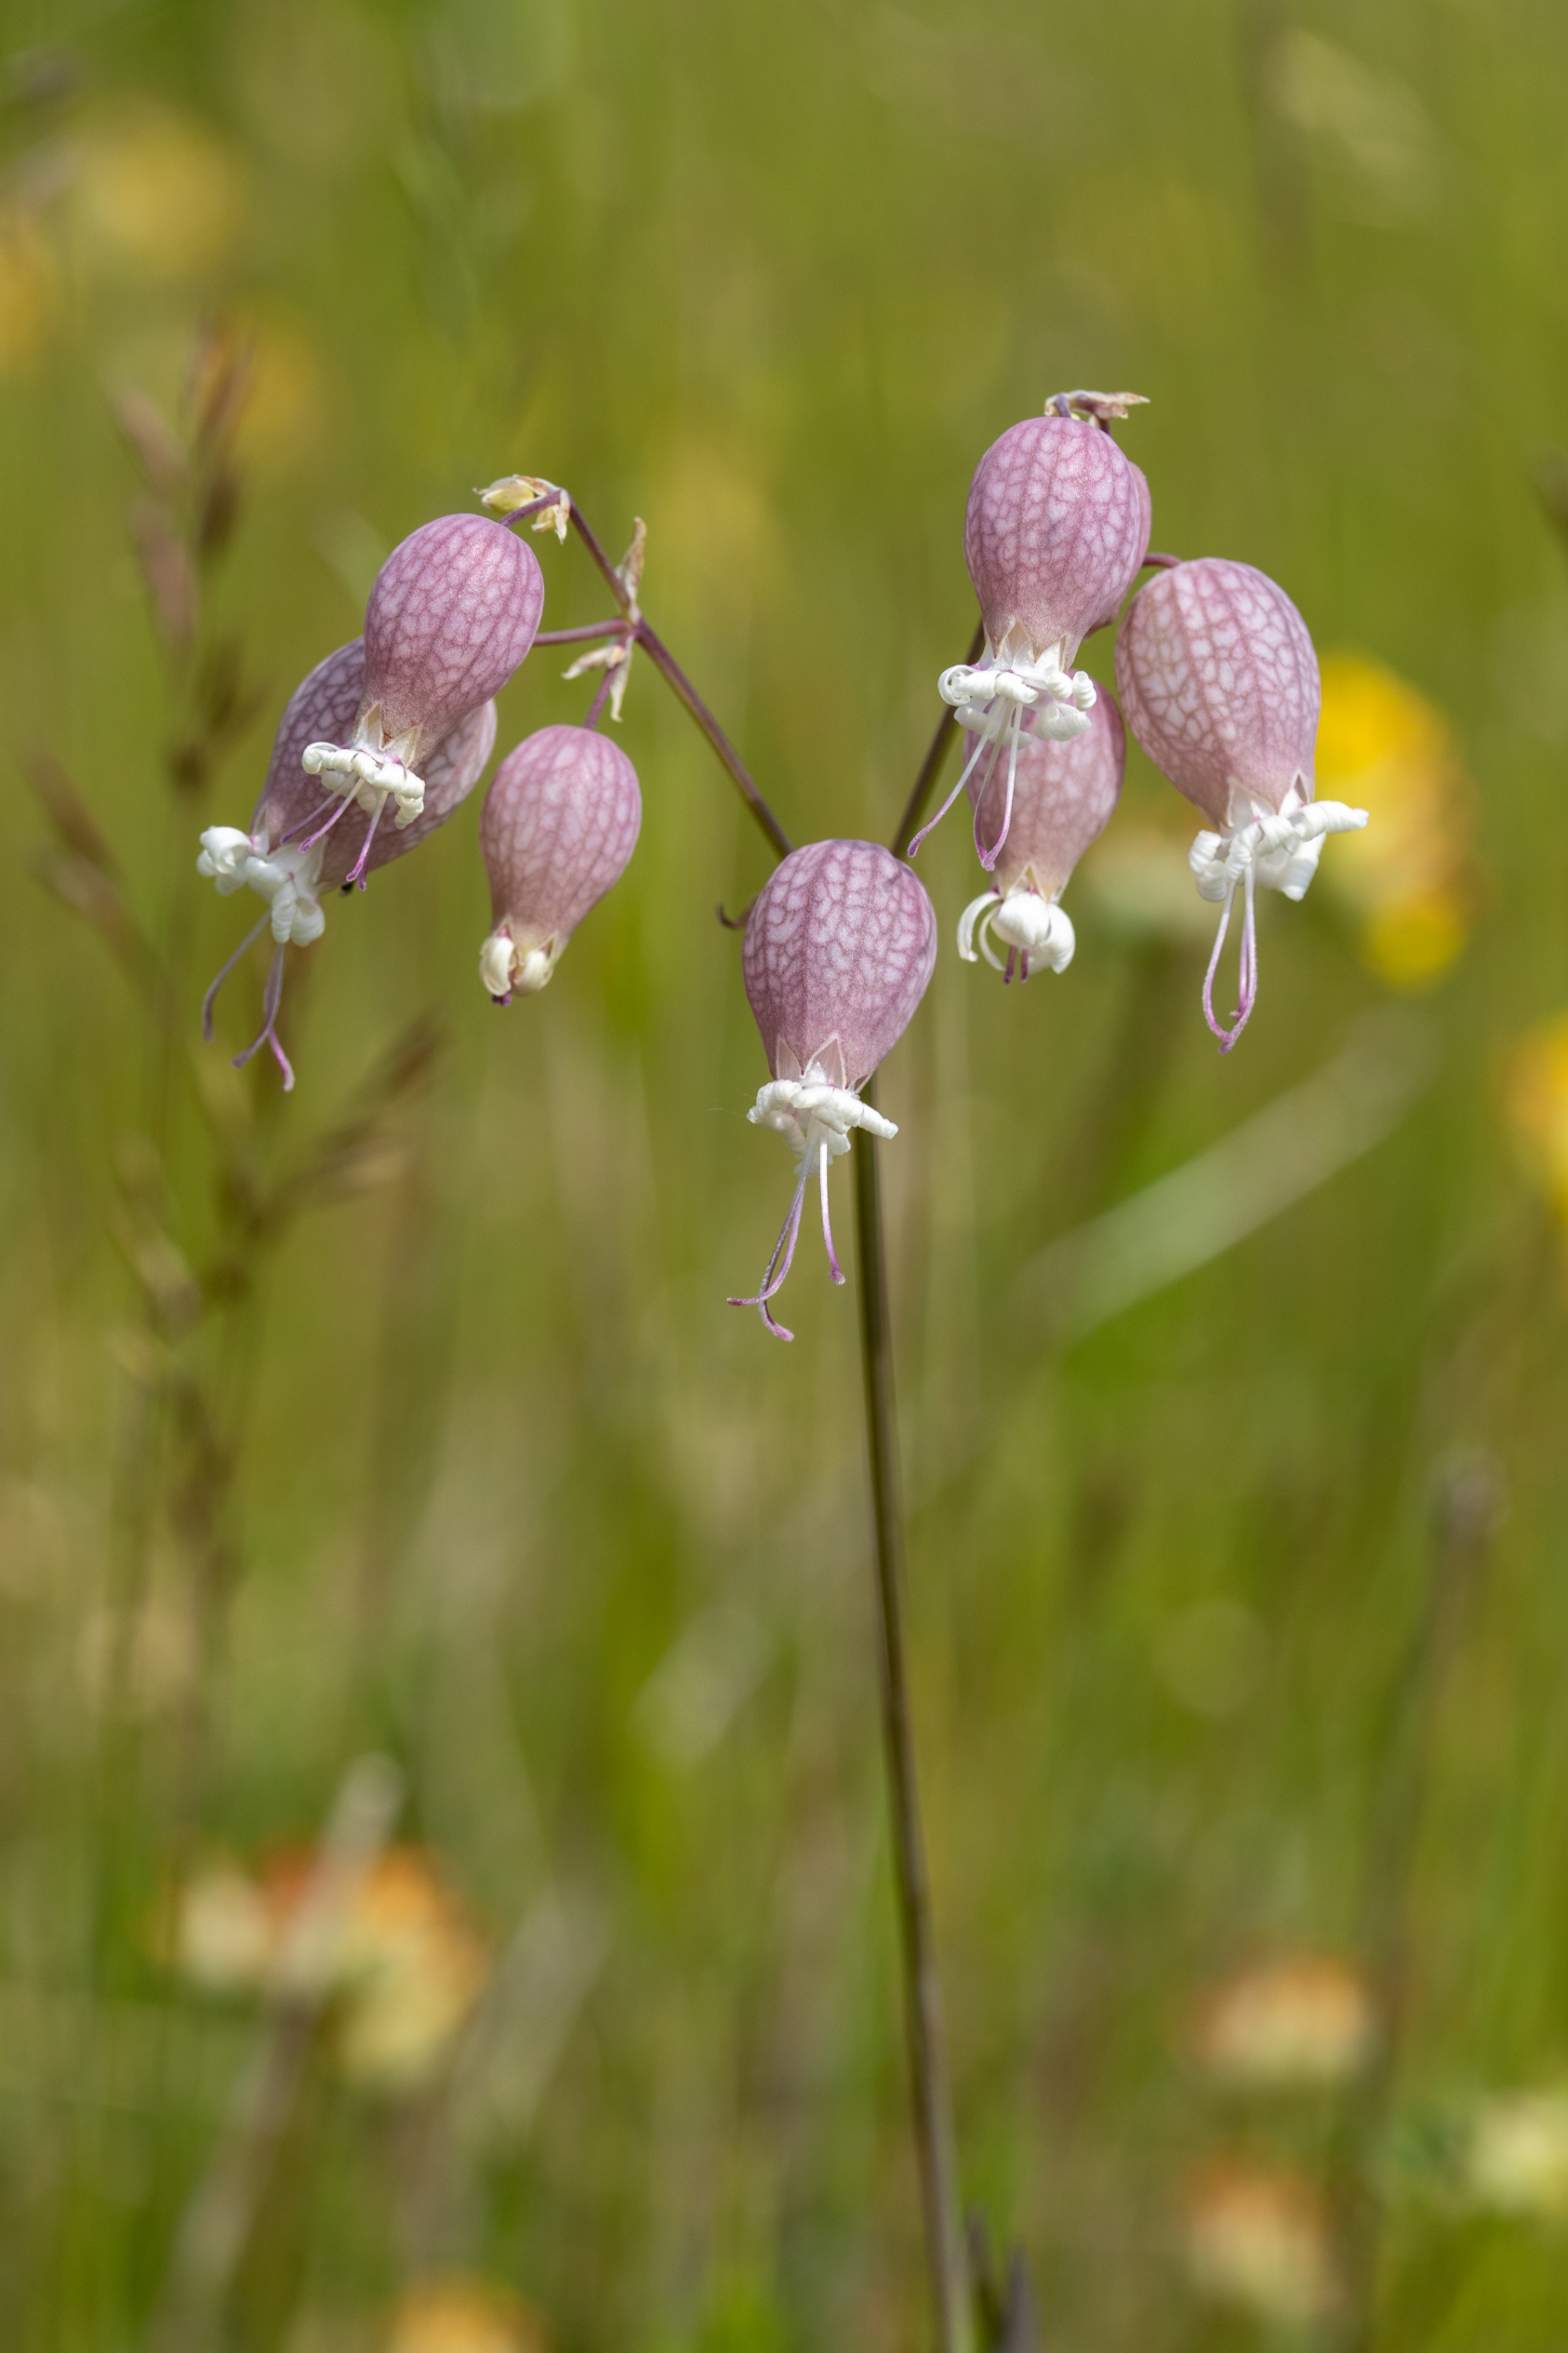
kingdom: Plantae
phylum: Tracheophyta
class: Magnoliopsida
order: Caryophyllales
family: Caryophyllaceae
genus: Silene
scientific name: Silene vulgaris
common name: Blæresmælde
